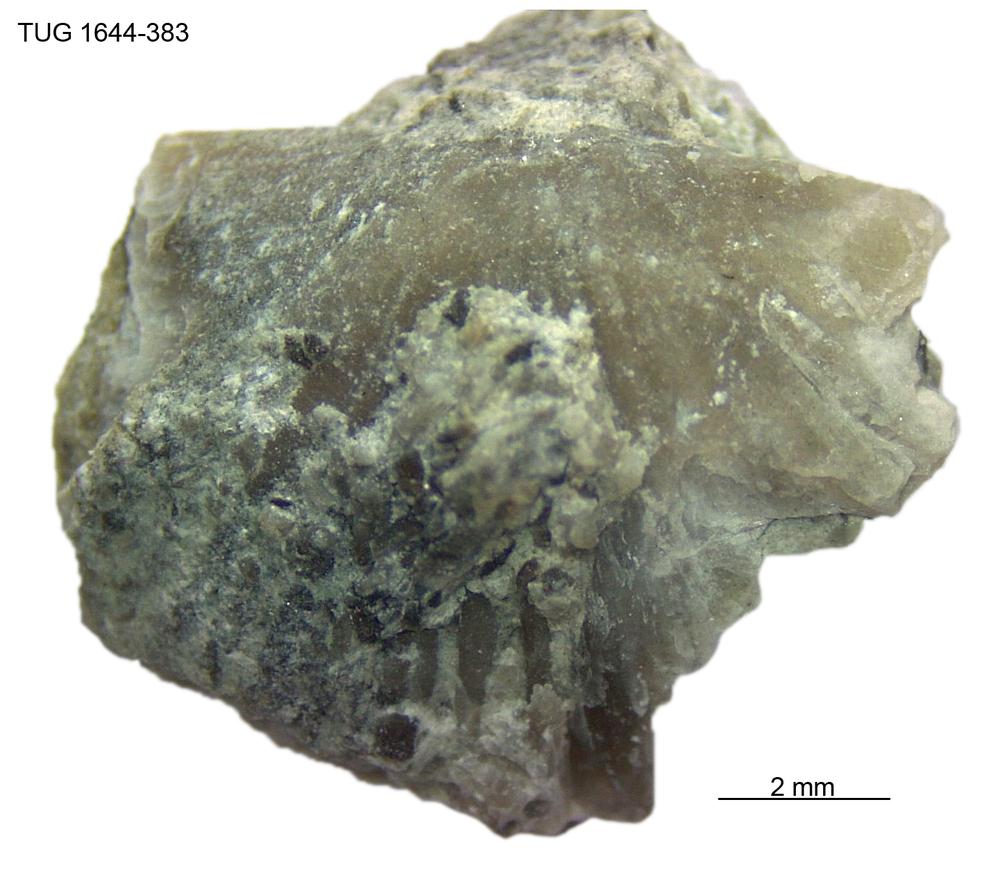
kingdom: Animalia
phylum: Brachiopoda
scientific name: Brachiopoda
